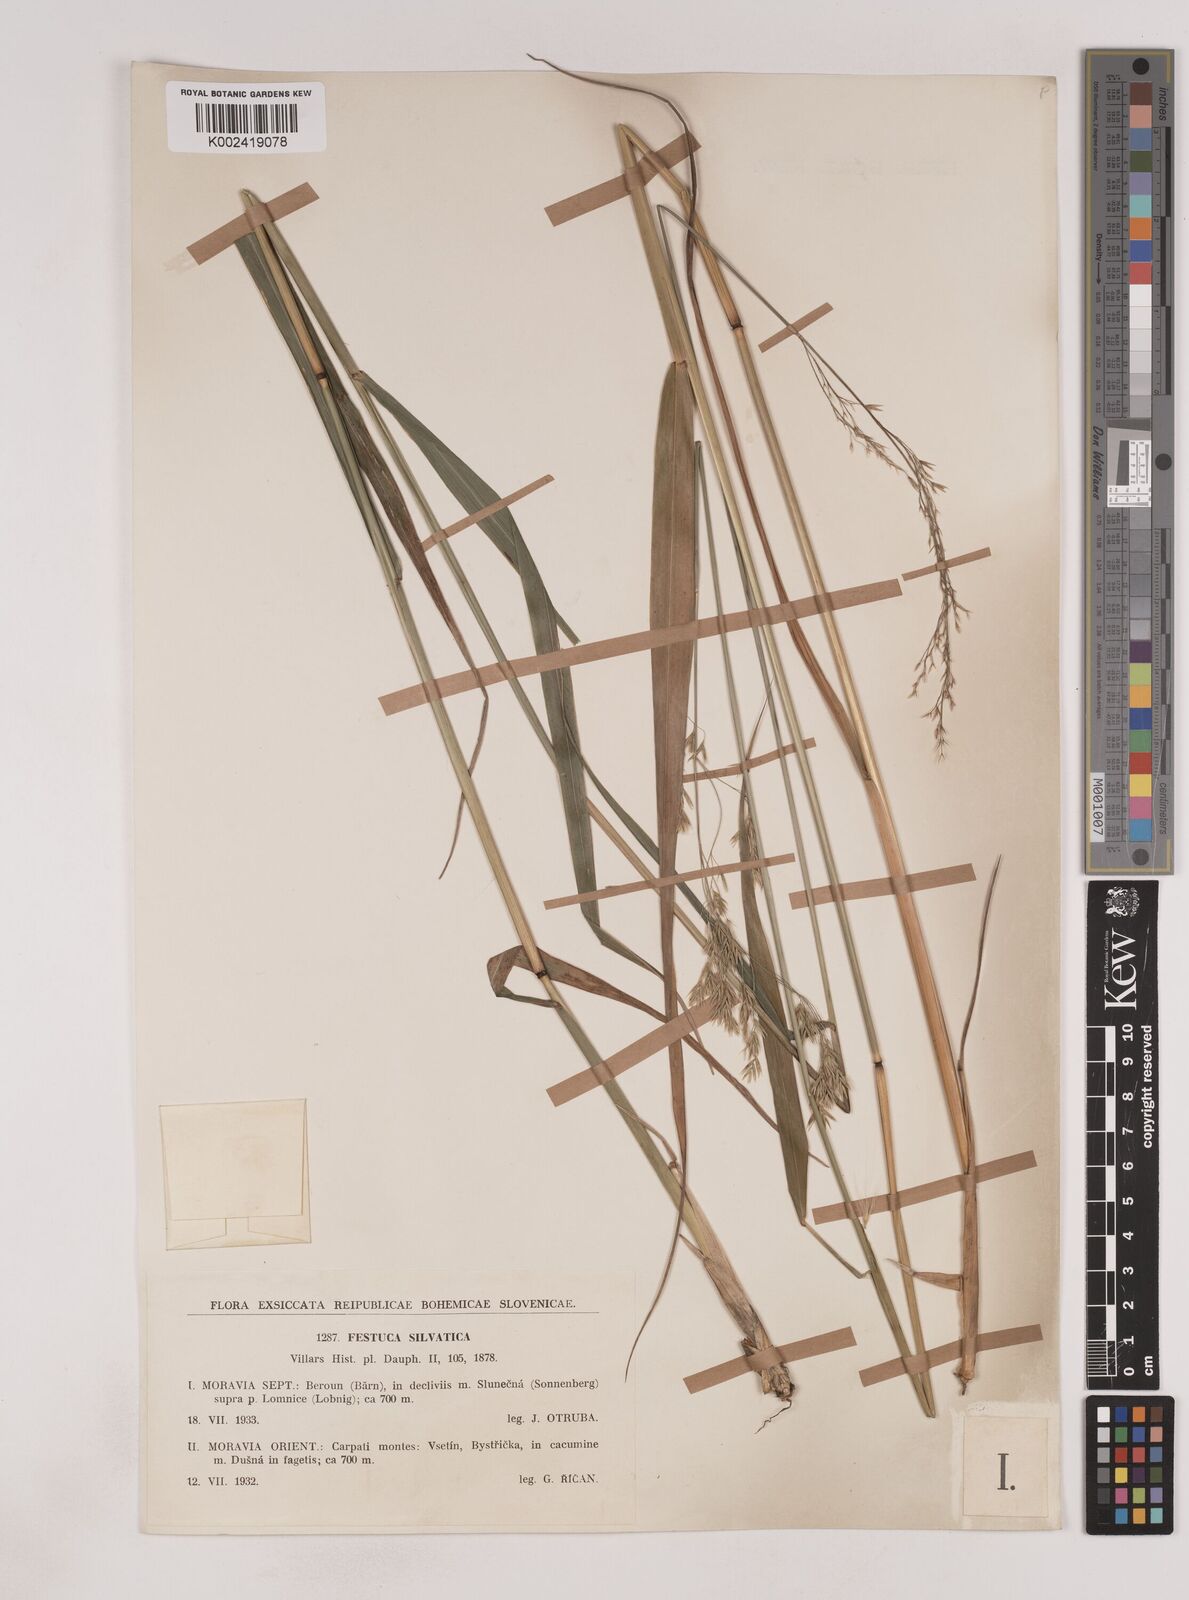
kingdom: Plantae
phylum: Tracheophyta
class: Liliopsida
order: Poales
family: Poaceae
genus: Festuca
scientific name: Festuca drymeja
